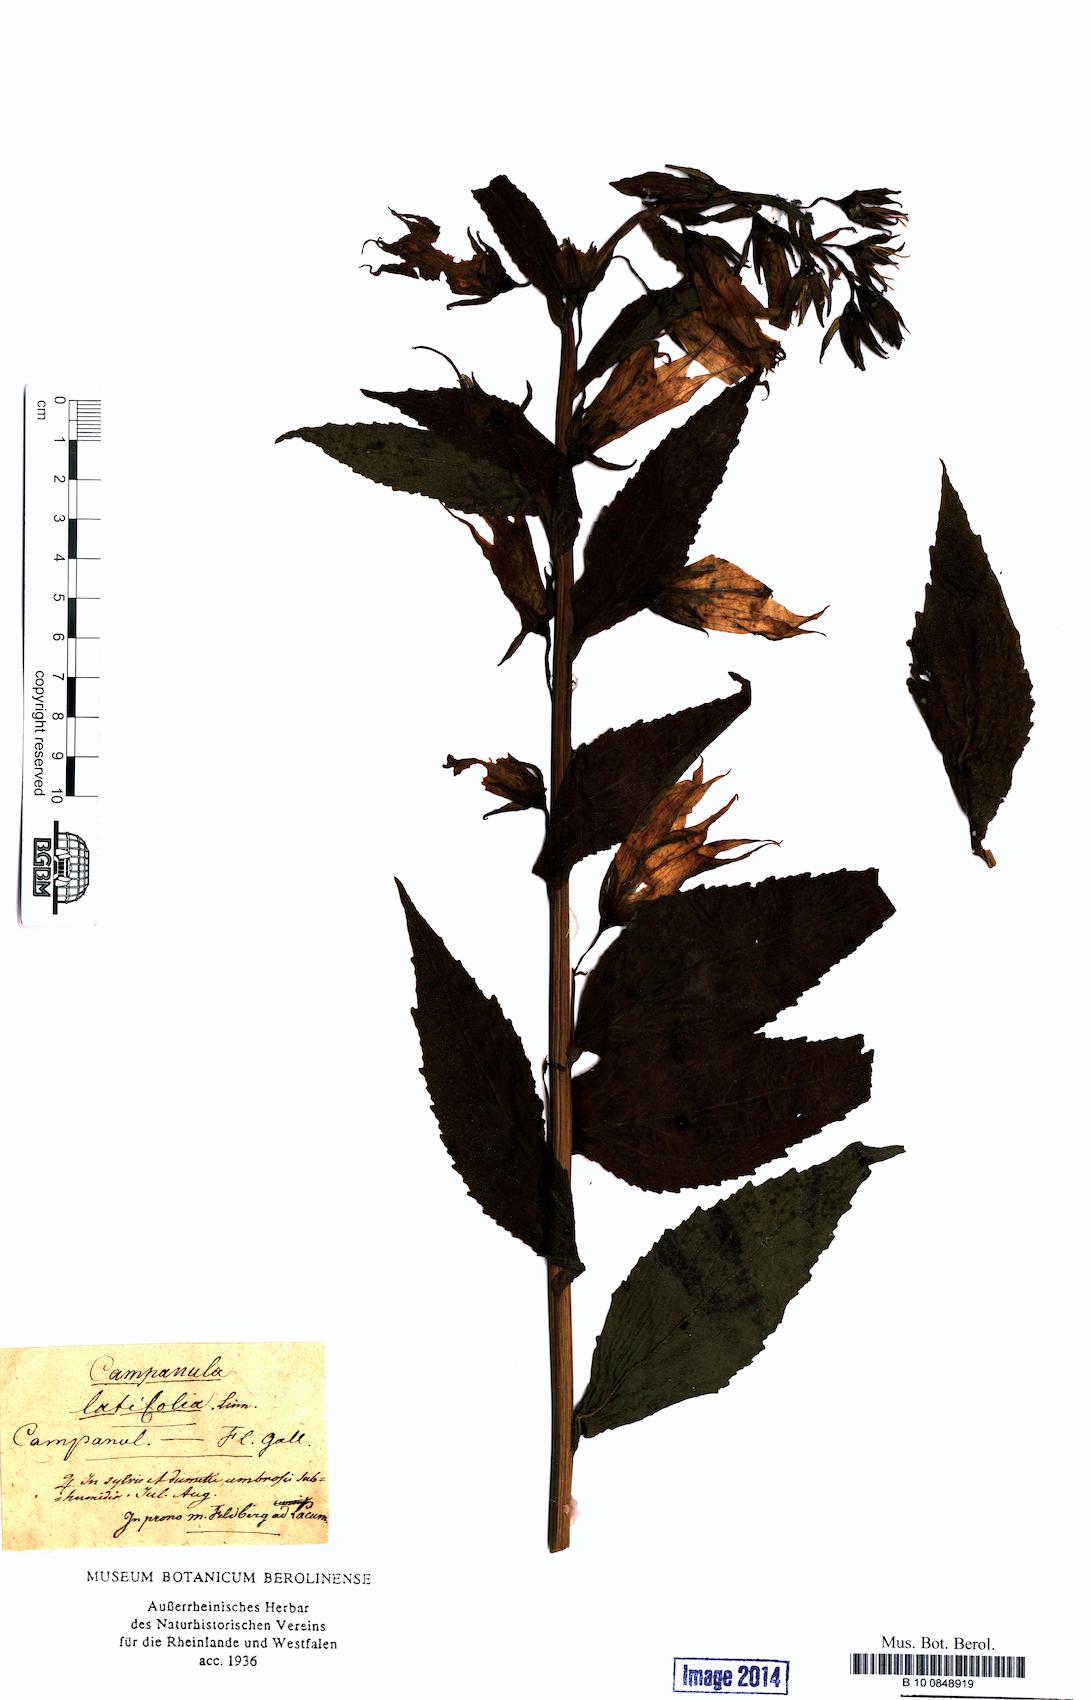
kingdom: Plantae
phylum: Tracheophyta
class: Magnoliopsida
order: Asterales
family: Campanulaceae
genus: Campanula
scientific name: Campanula latifolia
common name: Giant bellflower
